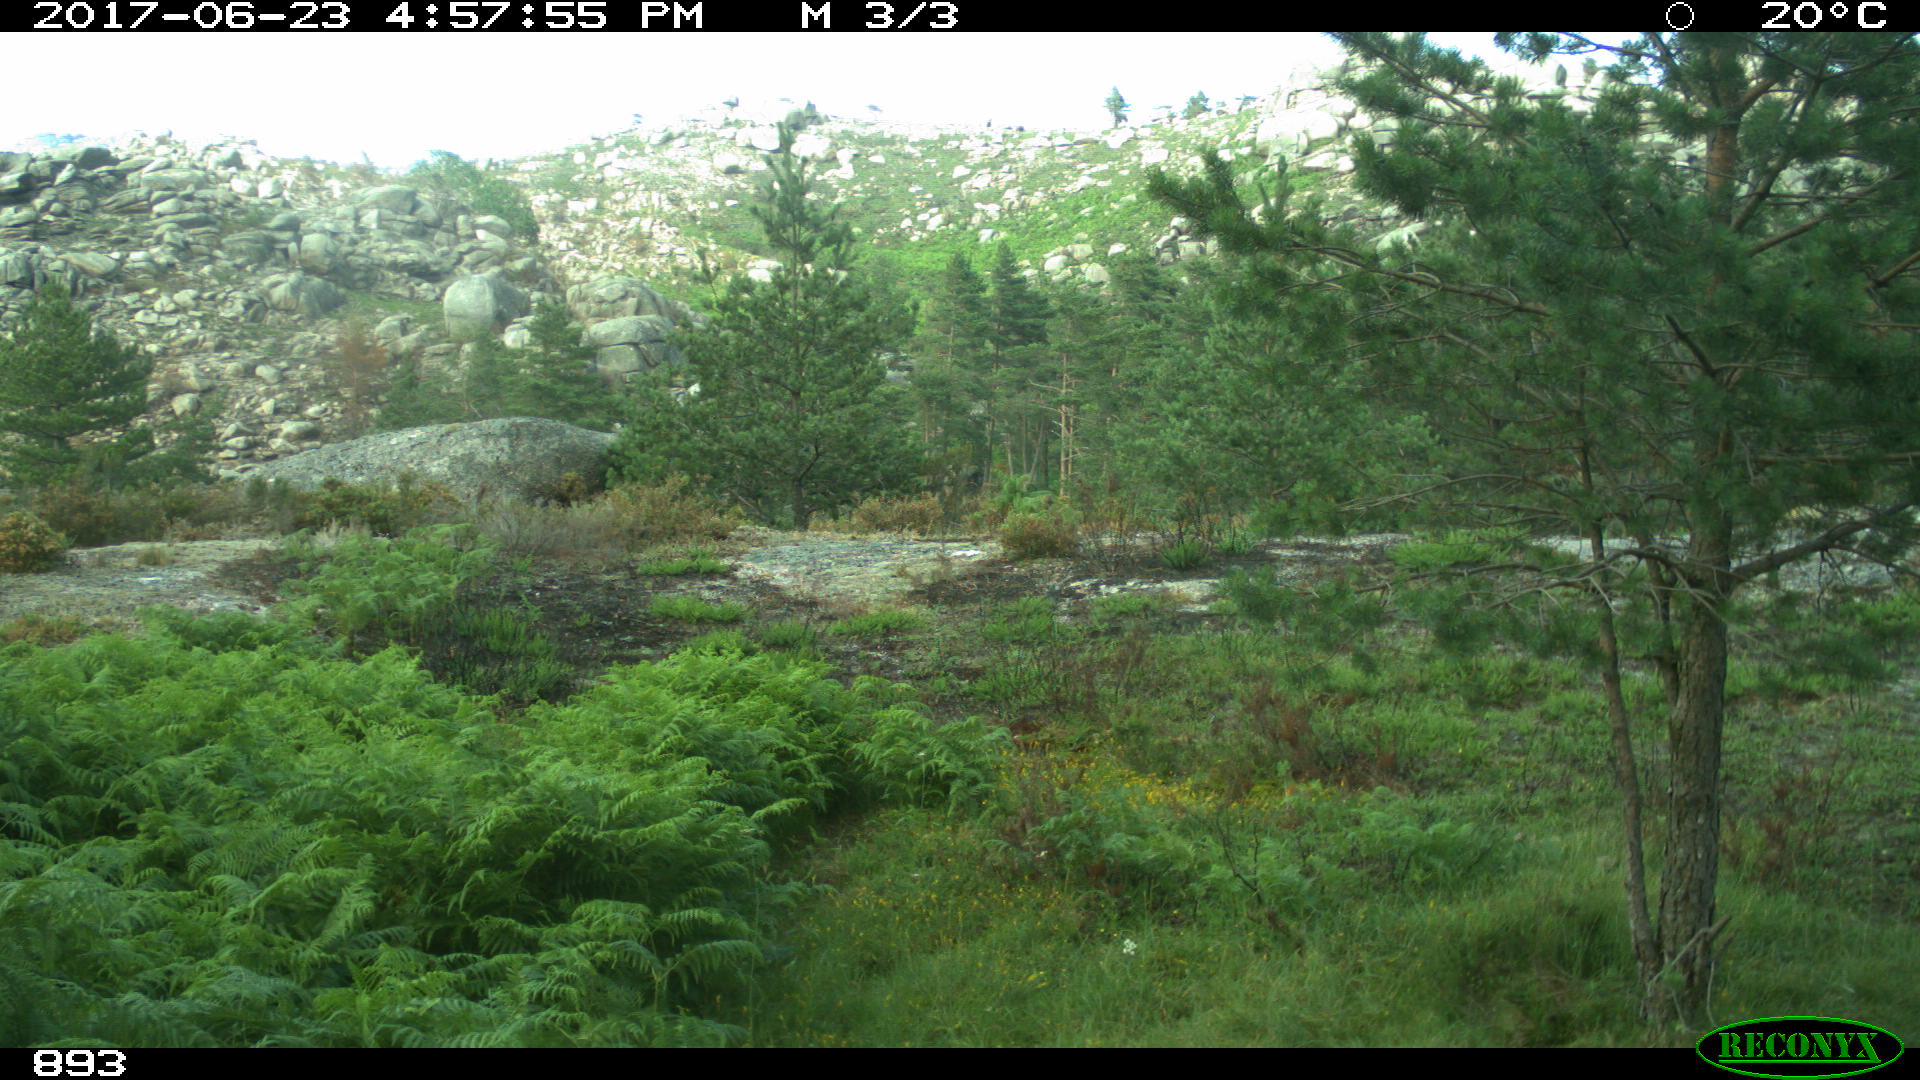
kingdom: Animalia
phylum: Chordata
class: Mammalia
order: Perissodactyla
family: Equidae
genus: Equus
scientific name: Equus caballus
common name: Horse
